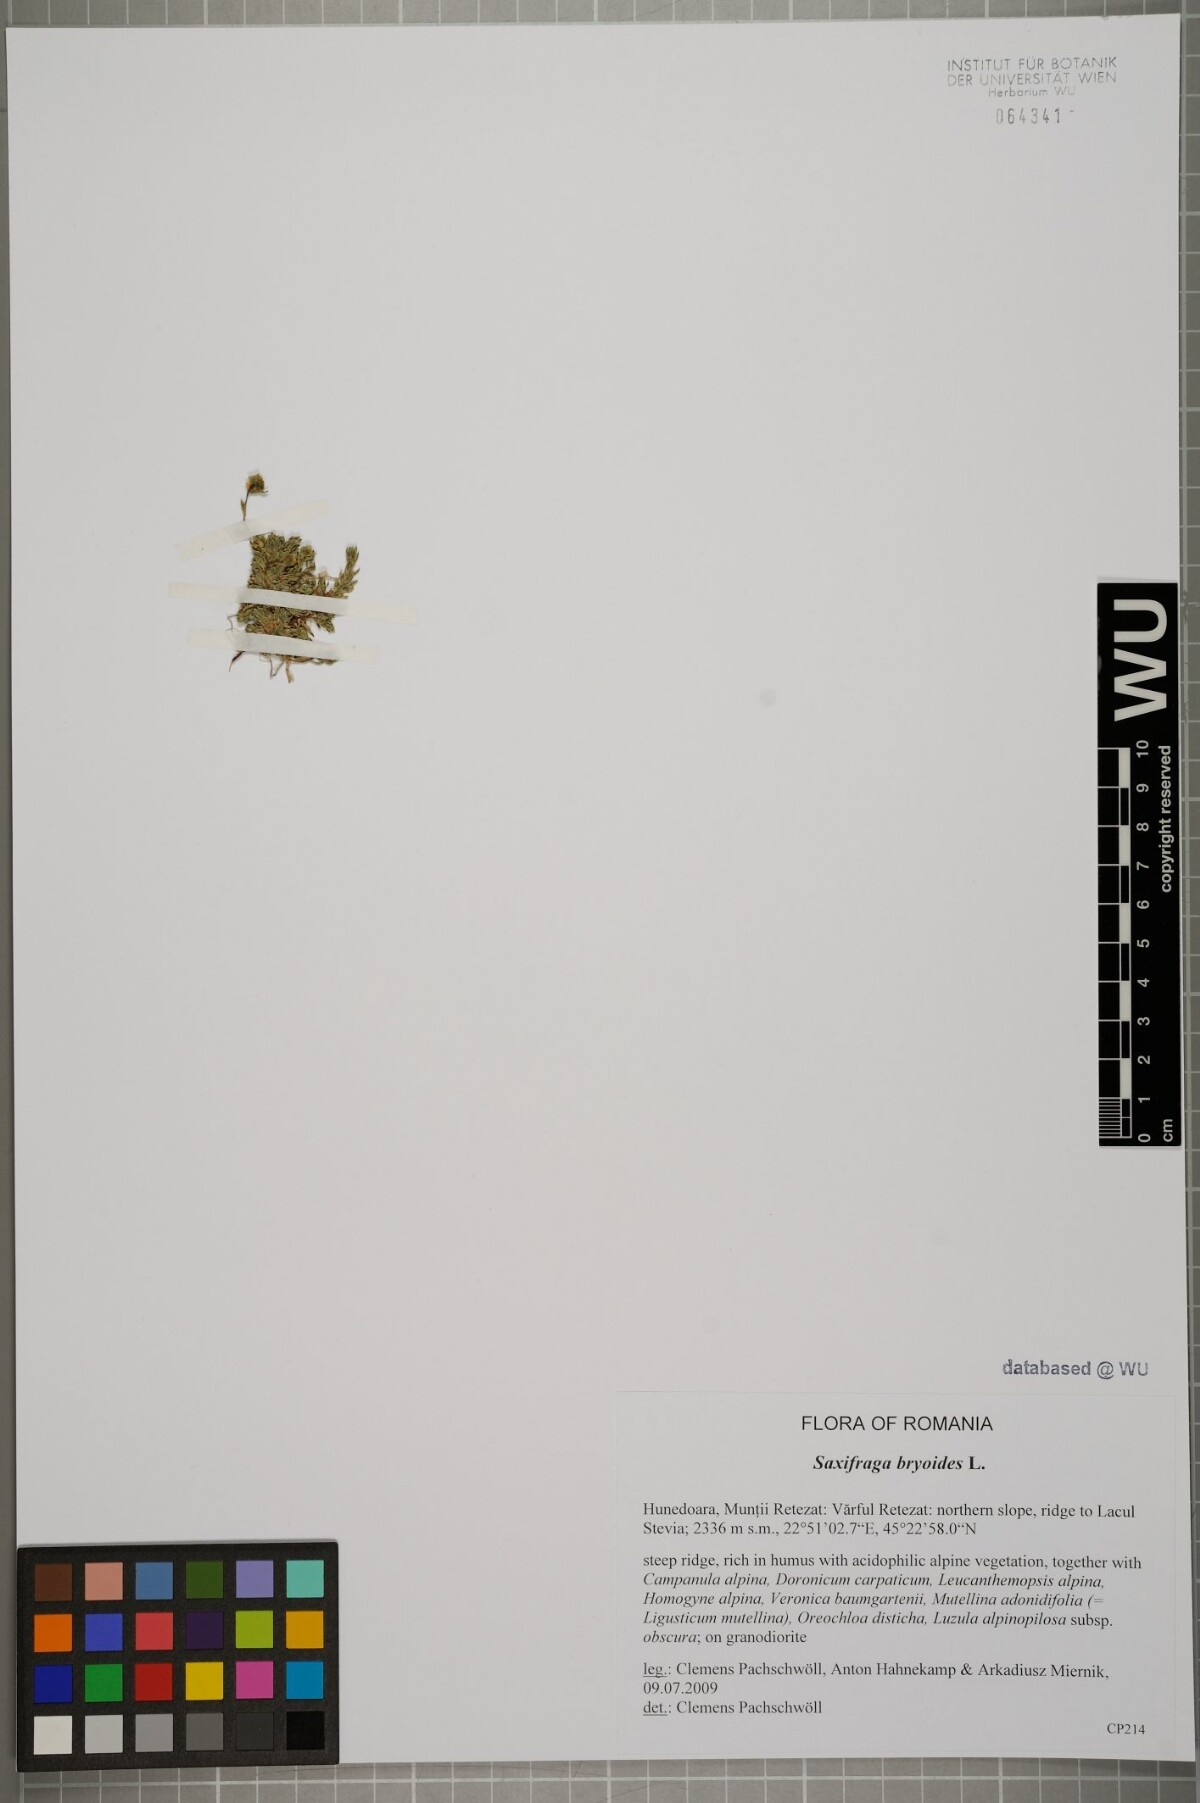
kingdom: Plantae
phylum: Tracheophyta
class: Magnoliopsida
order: Saxifragales
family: Saxifragaceae
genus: Saxifraga
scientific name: Saxifraga bryoides
